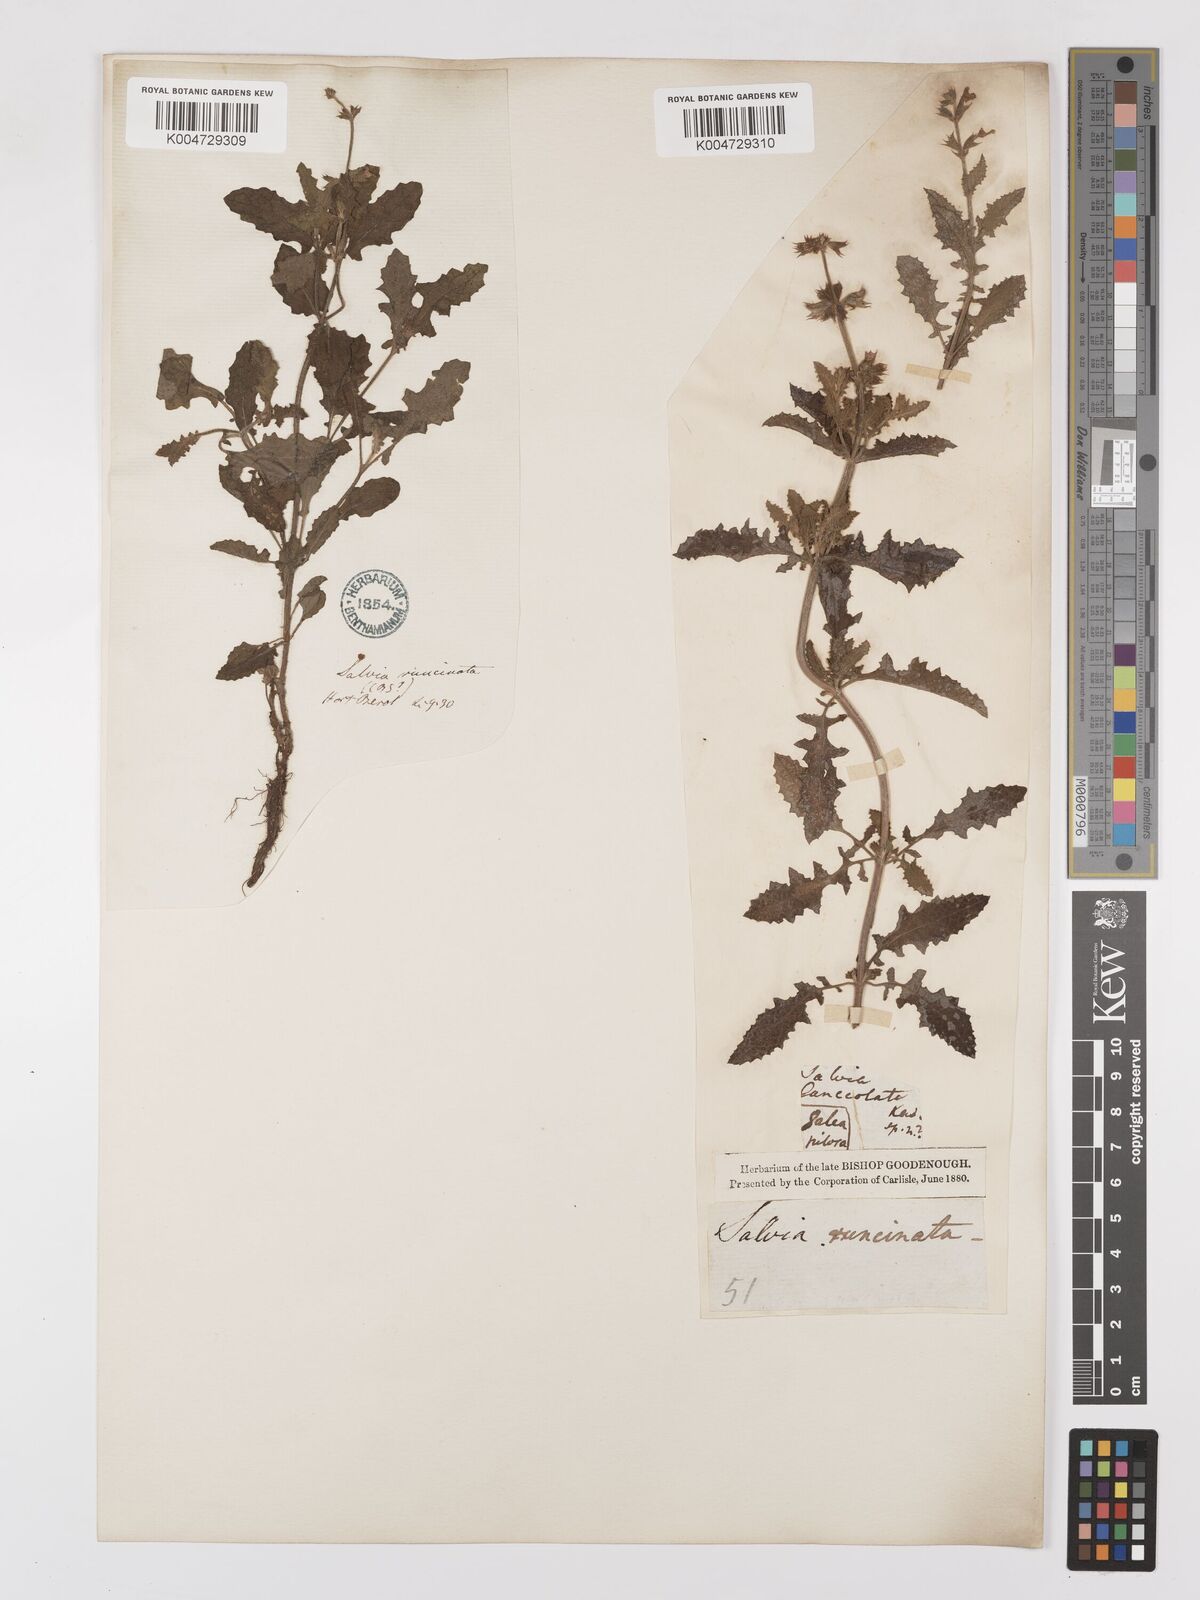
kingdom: Plantae
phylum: Tracheophyta
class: Magnoliopsida
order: Lamiales
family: Lamiaceae
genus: Salvia
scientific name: Salvia runcinata
